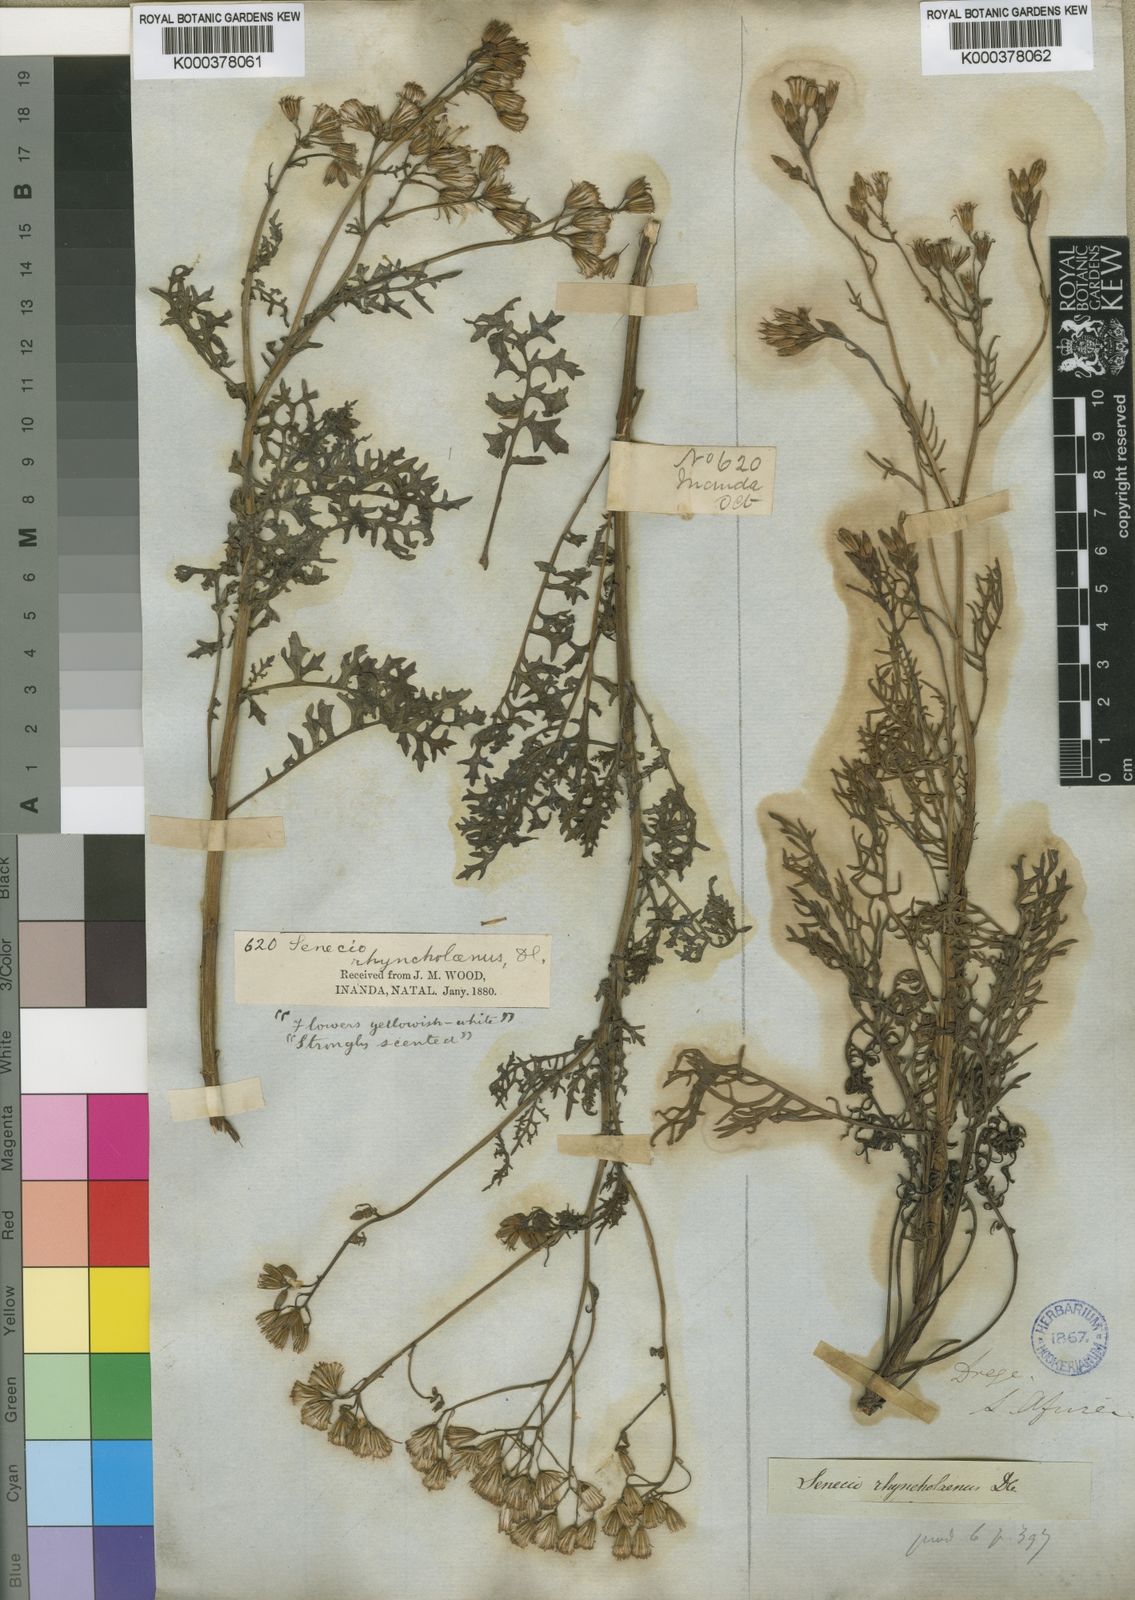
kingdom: Plantae
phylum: Tracheophyta
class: Magnoliopsida
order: Asterales
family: Asteraceae
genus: Senecio
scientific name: Senecio rhyncholaenus
